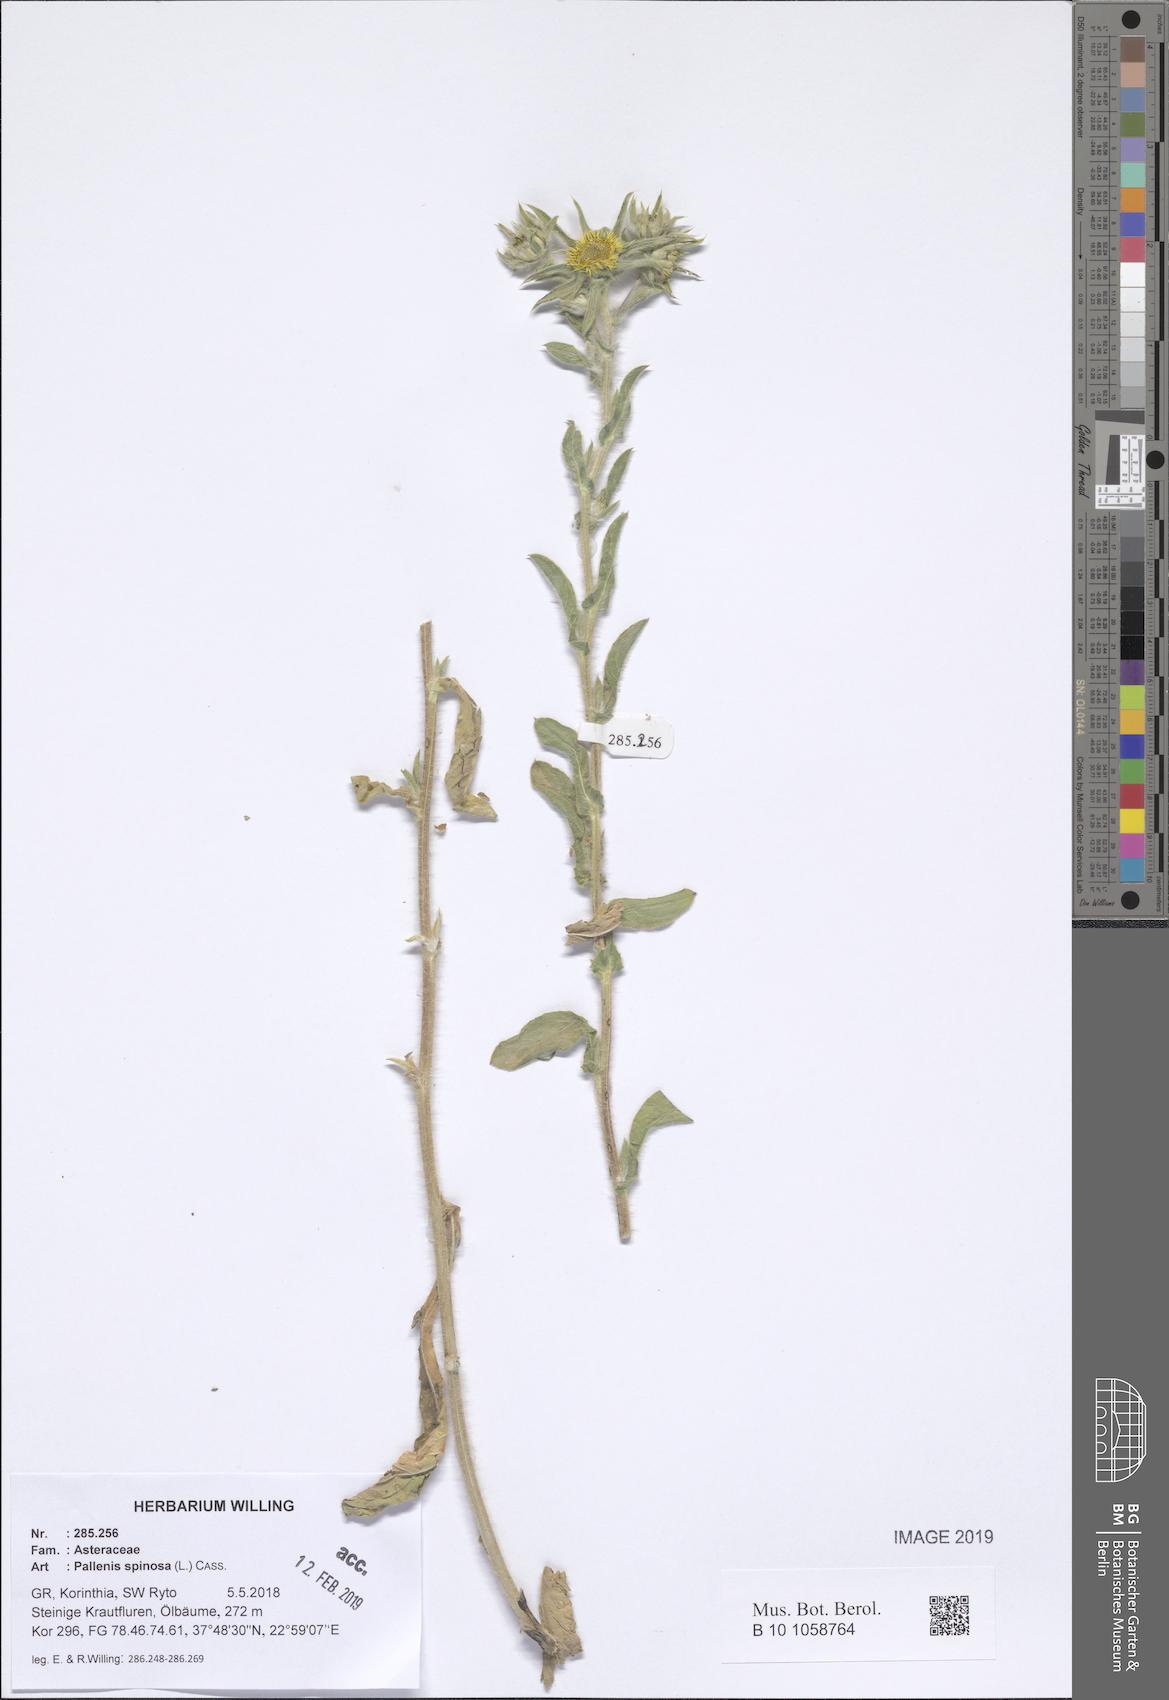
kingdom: Plantae
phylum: Tracheophyta
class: Magnoliopsida
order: Asterales
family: Asteraceae
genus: Pallenis
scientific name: Pallenis spinosa
